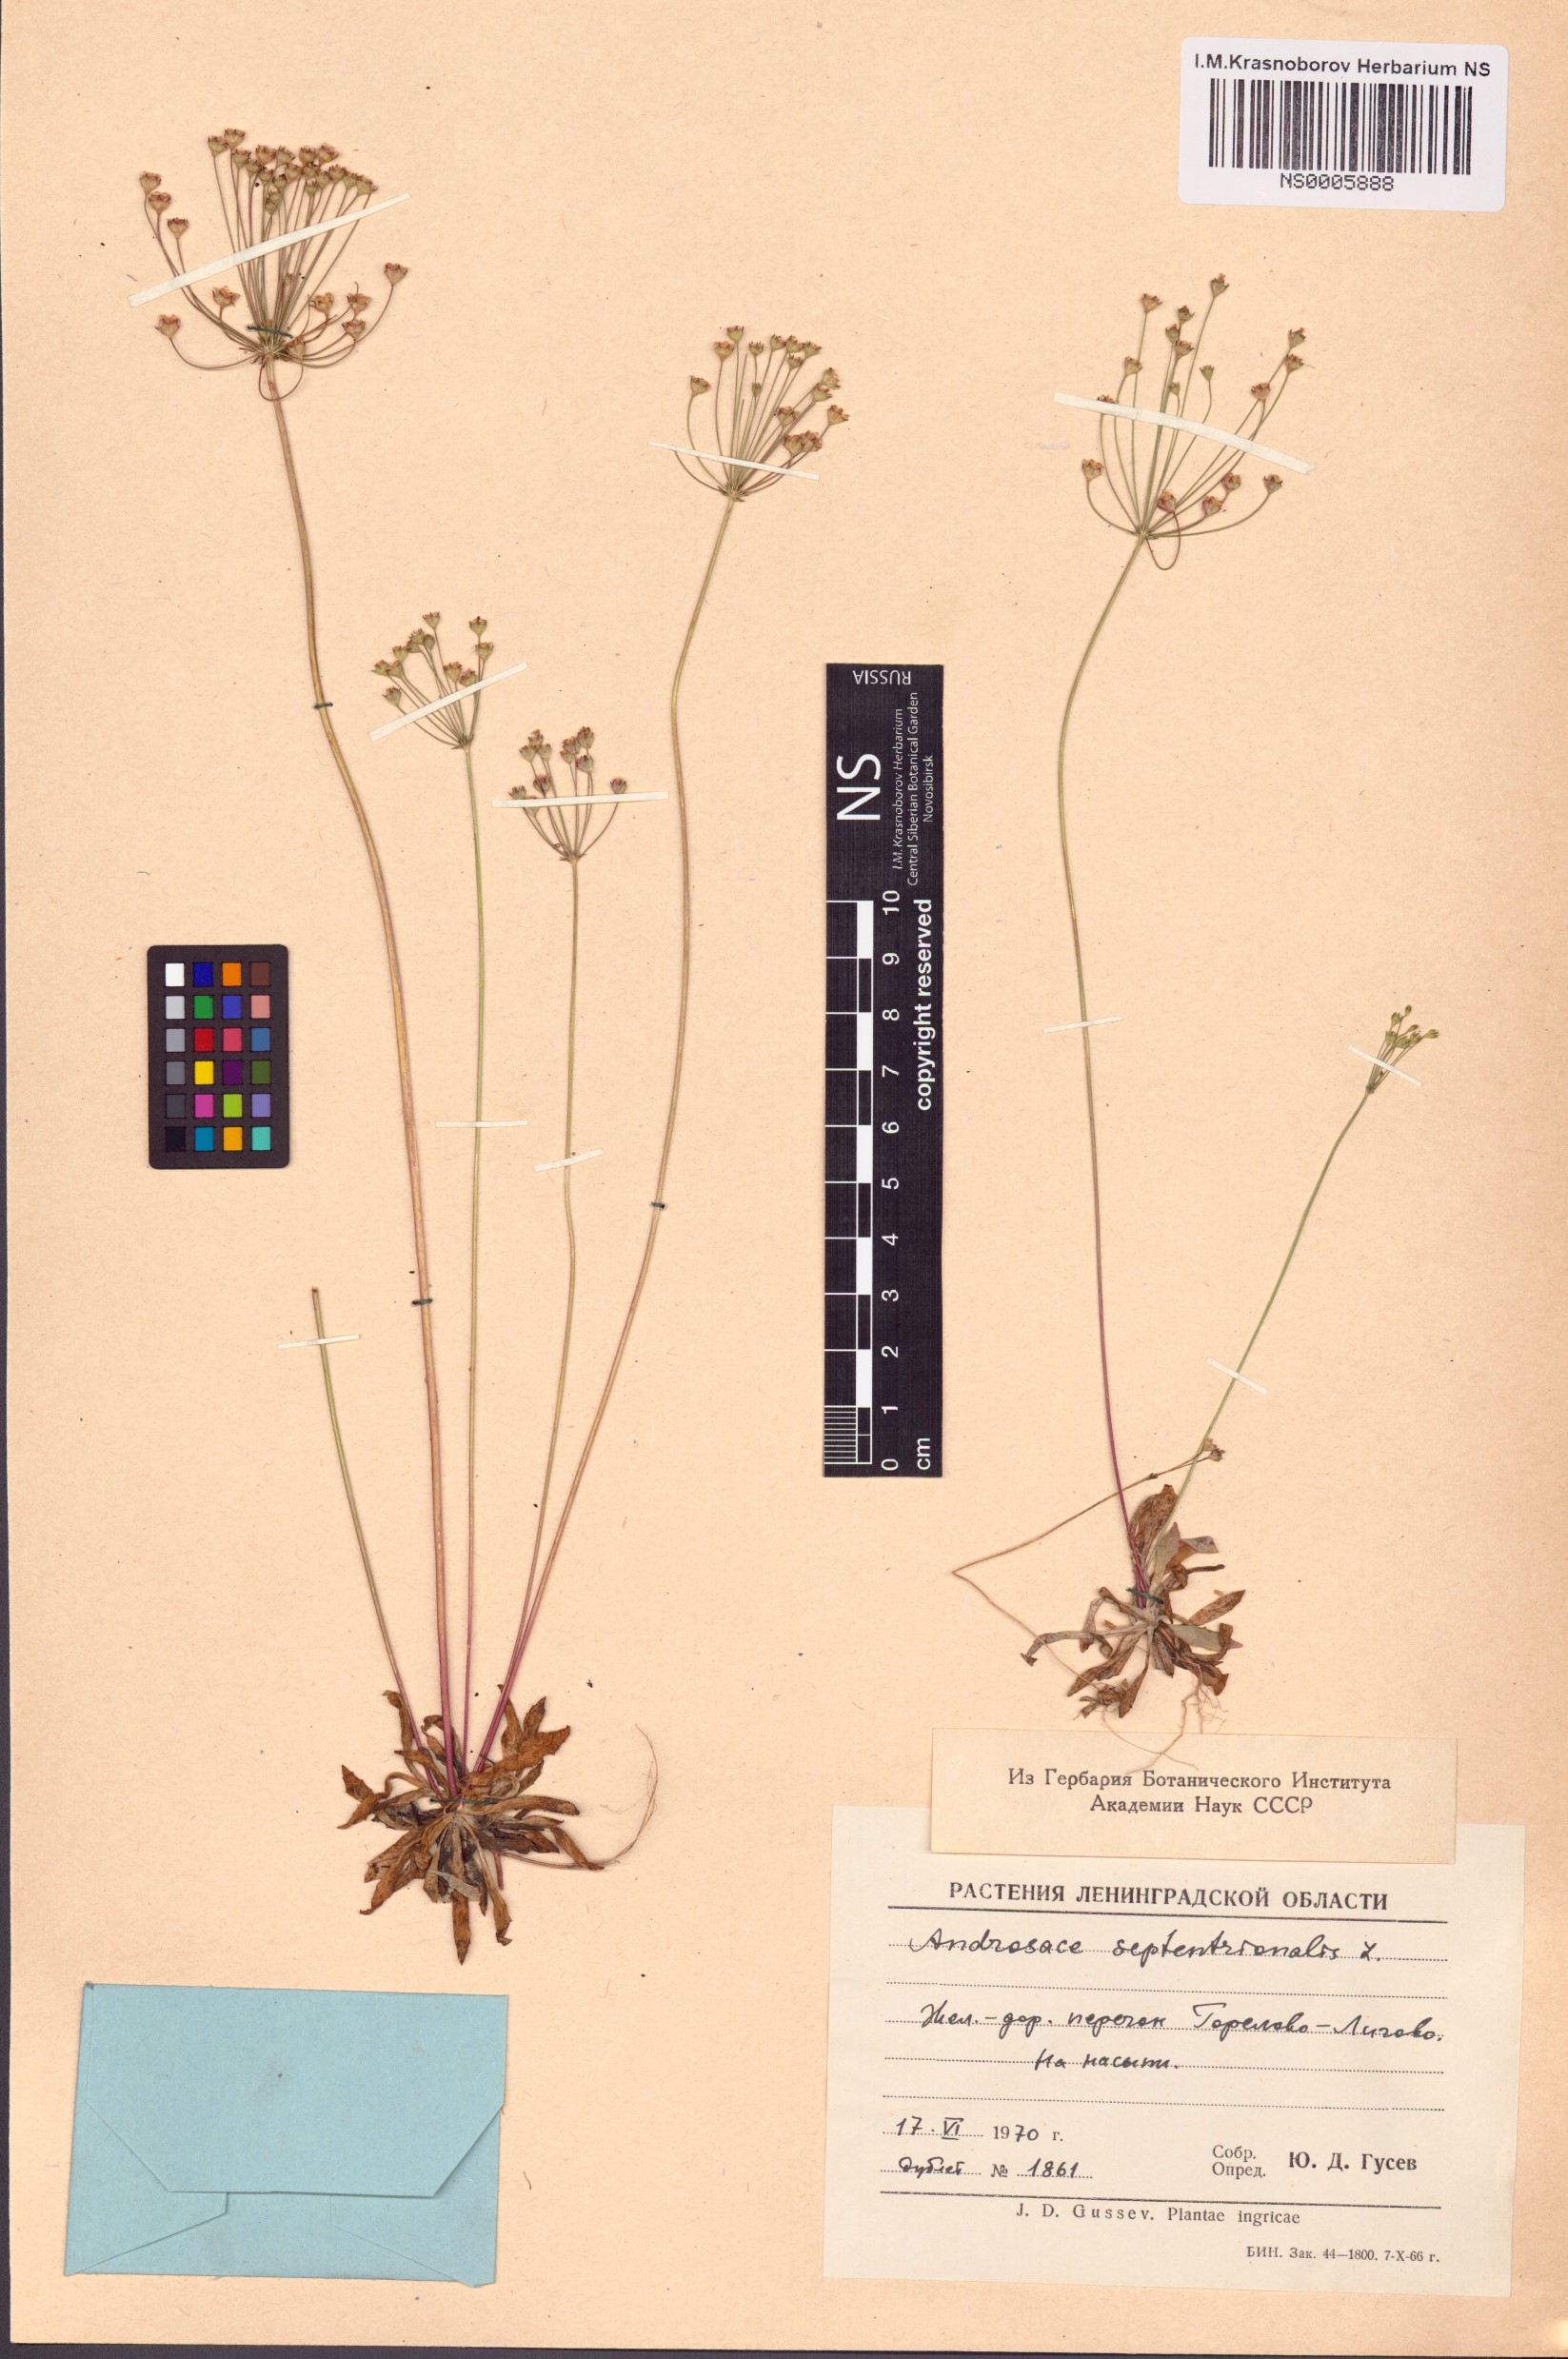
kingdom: Plantae
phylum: Tracheophyta
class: Magnoliopsida
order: Ericales
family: Primulaceae
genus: Androsace
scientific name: Androsace septentrionalis
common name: Hairy northern fairy-candelabra
